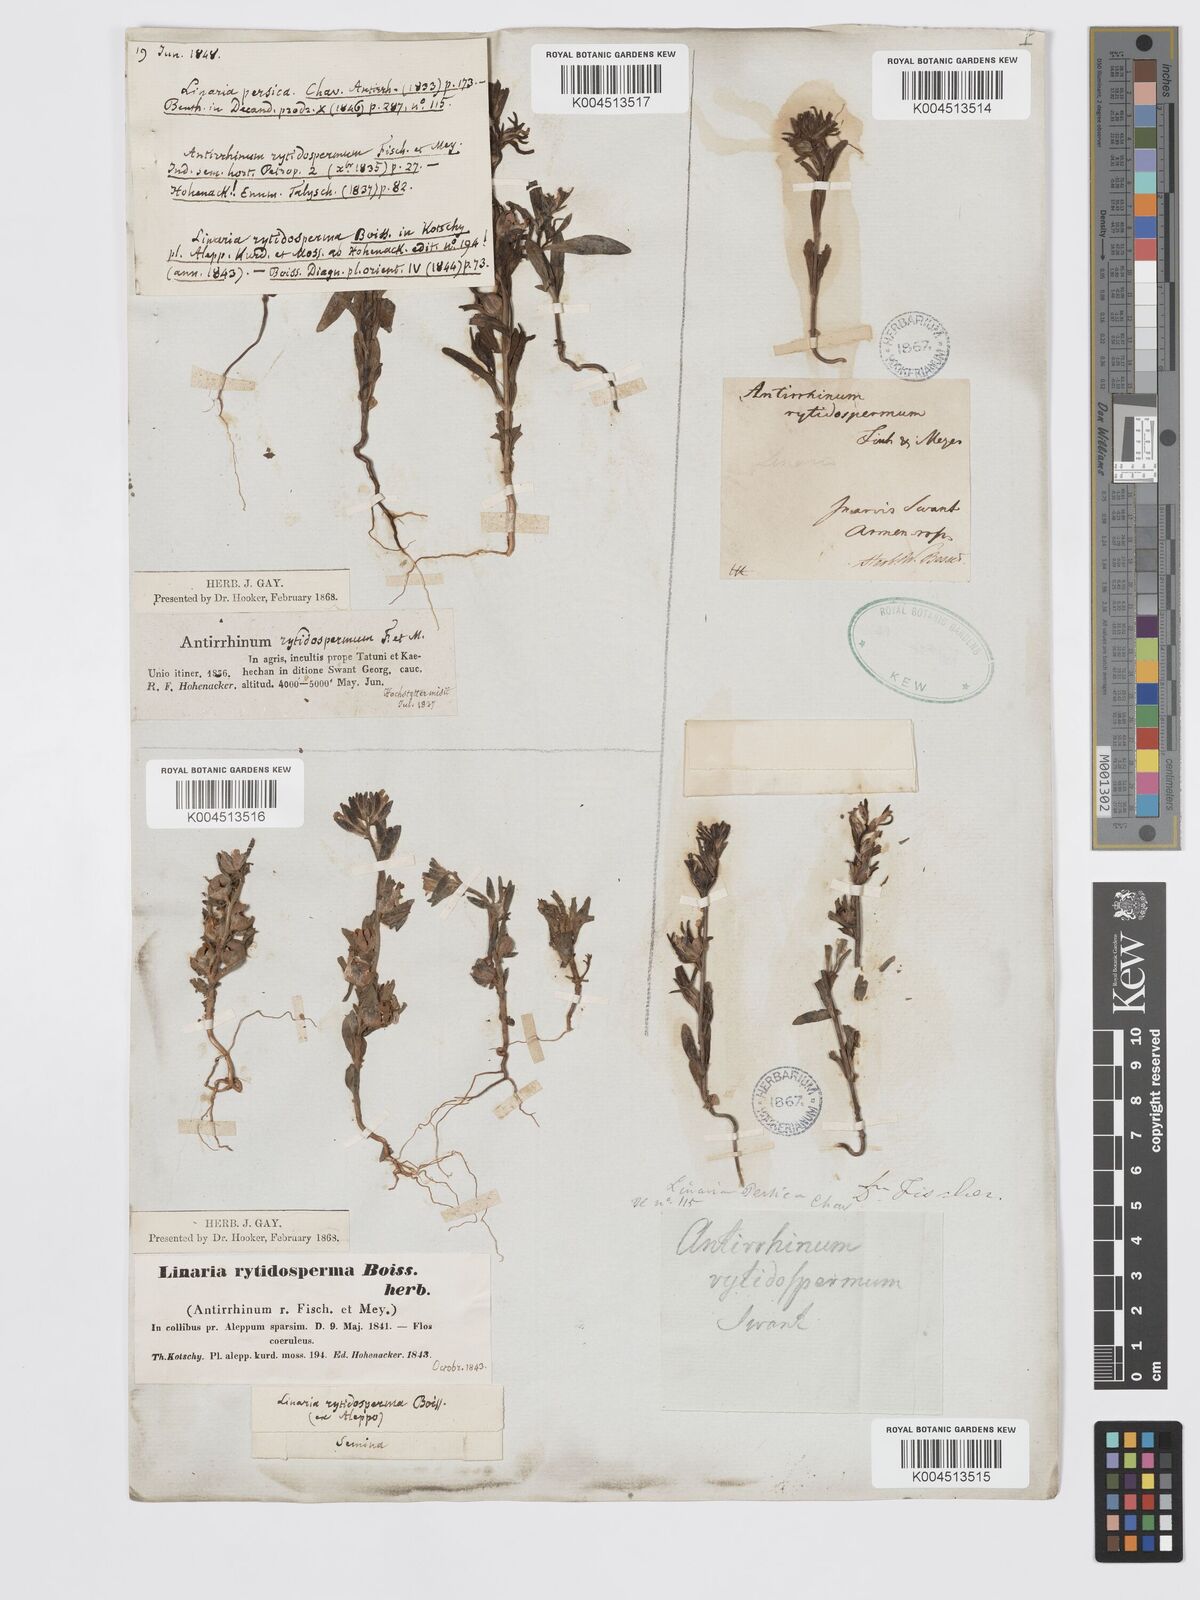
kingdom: Plantae
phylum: Tracheophyta
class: Magnoliopsida
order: Lamiales
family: Plantaginaceae
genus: Chaenorhinum
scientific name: Chaenorhinum calycinum
